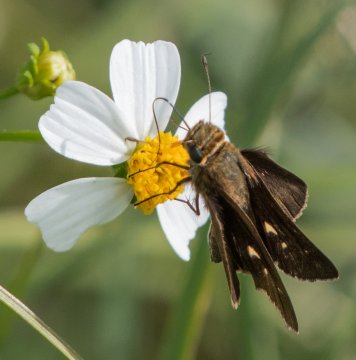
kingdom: Animalia
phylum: Arthropoda
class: Insecta
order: Lepidoptera
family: Hesperiidae
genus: Panoquina
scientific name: Panoquina ocola
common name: Ocola Skipper
